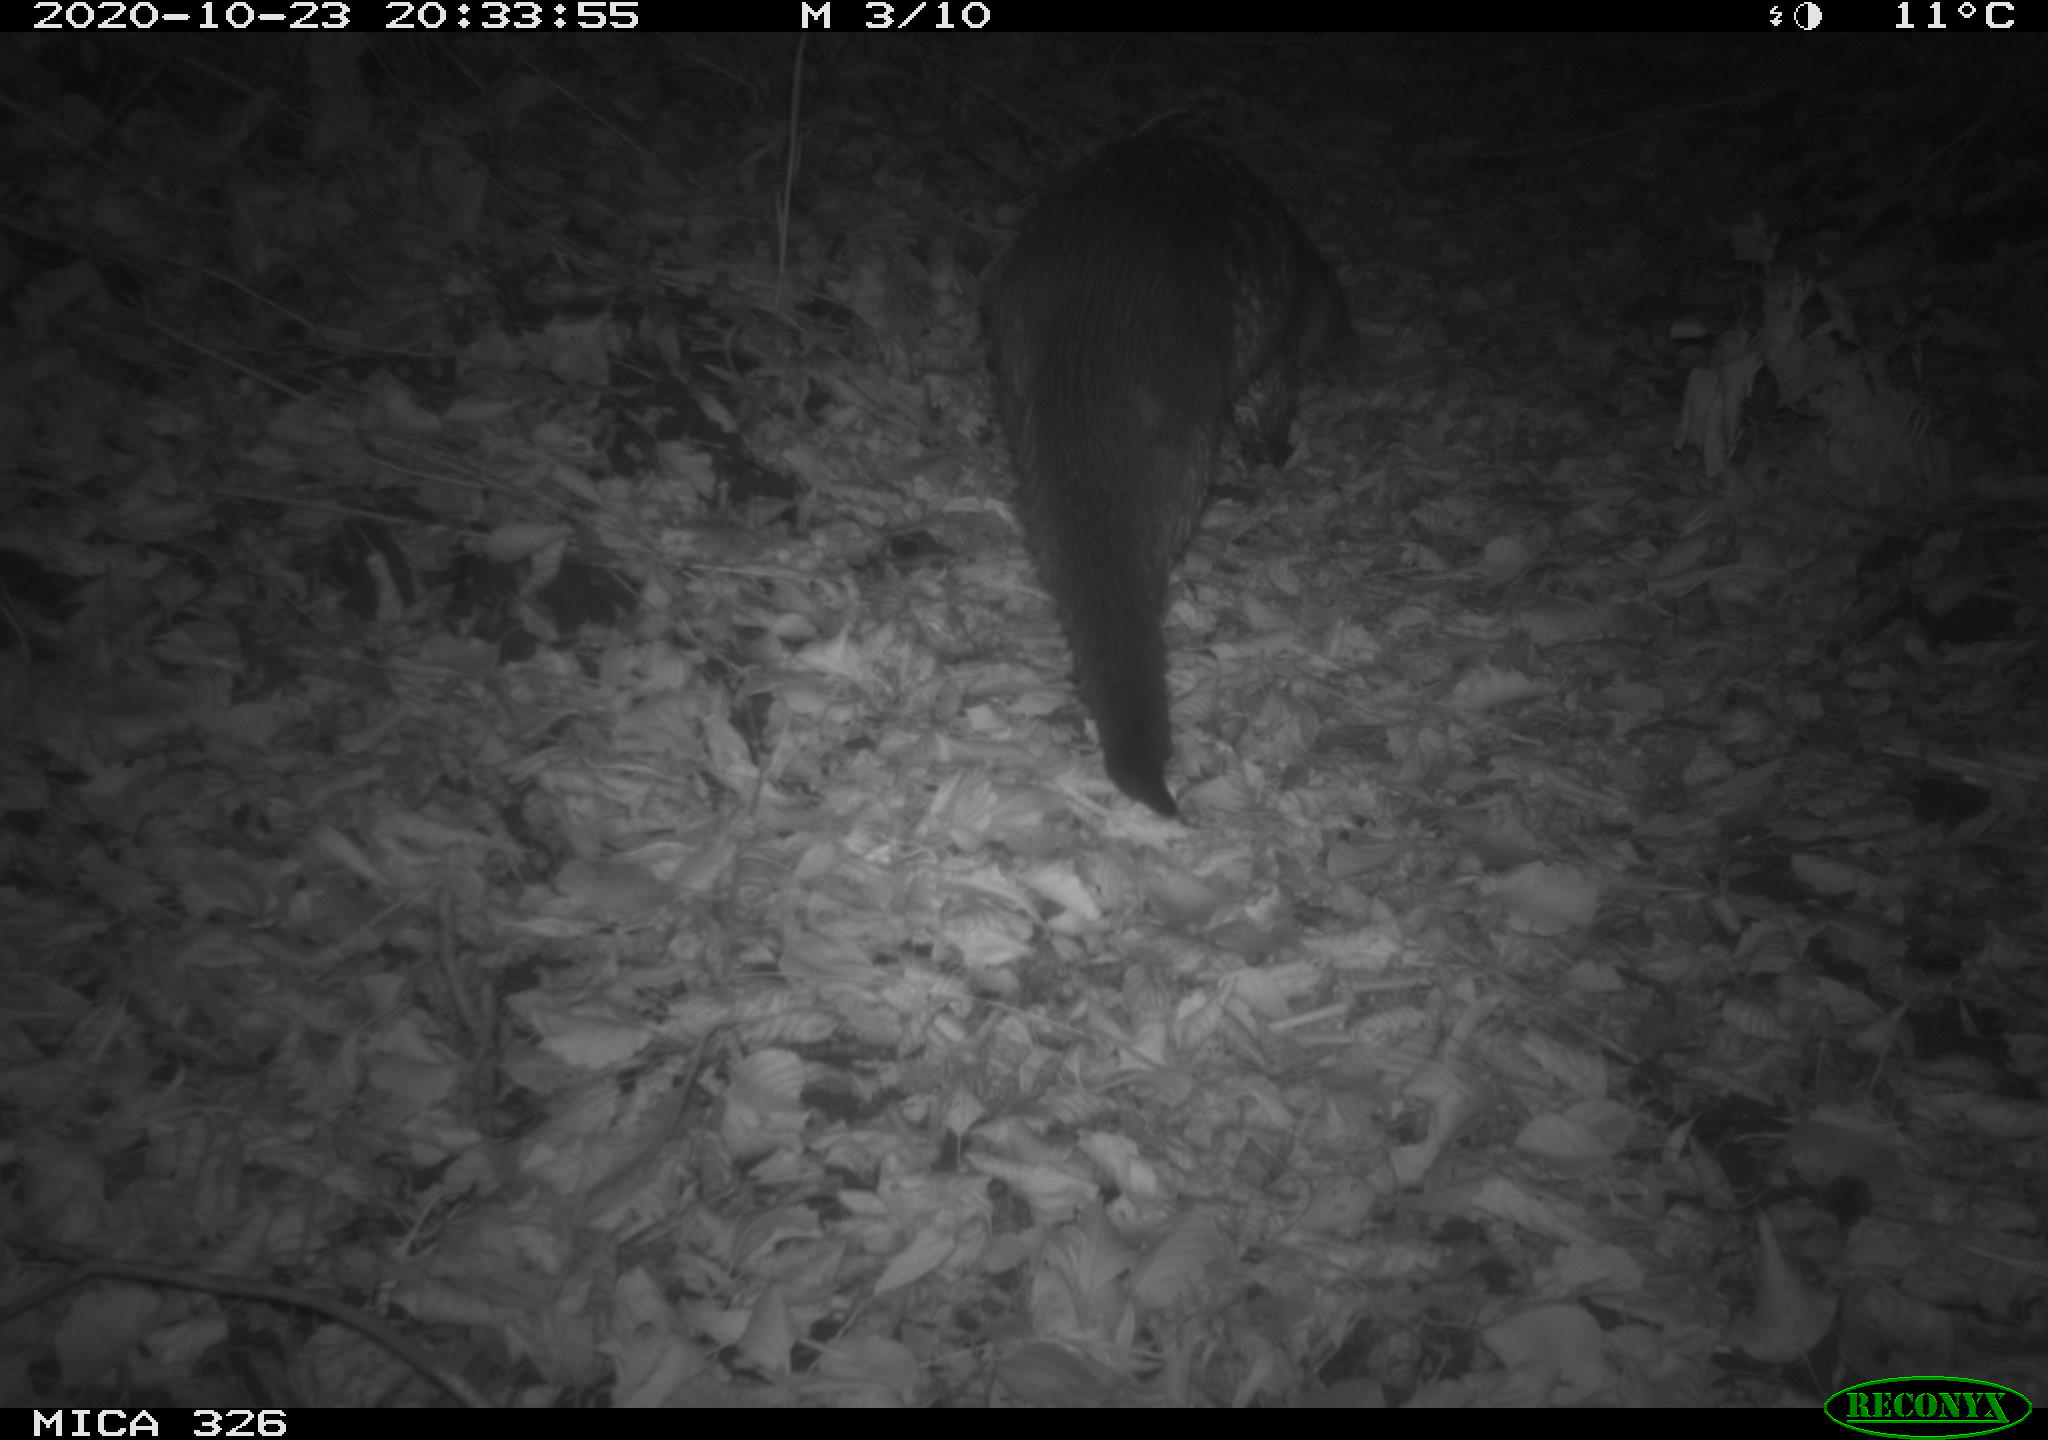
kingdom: Animalia
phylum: Chordata
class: Mammalia
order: Carnivora
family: Mustelidae
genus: Lutra
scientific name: Lutra lutra
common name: European otter
